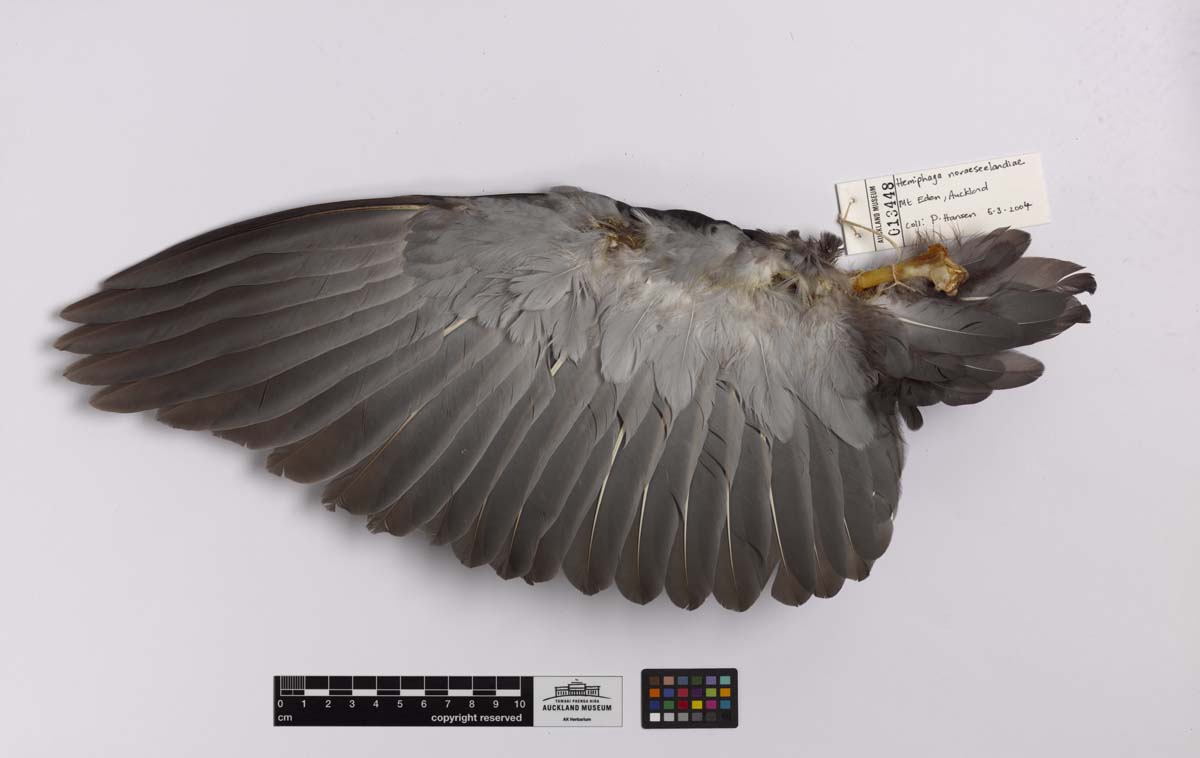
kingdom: Animalia
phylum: Chordata
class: Aves
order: Columbiformes
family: Columbidae
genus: Hemiphaga
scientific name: Hemiphaga novaeseelandiae
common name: New zealand pigeon
